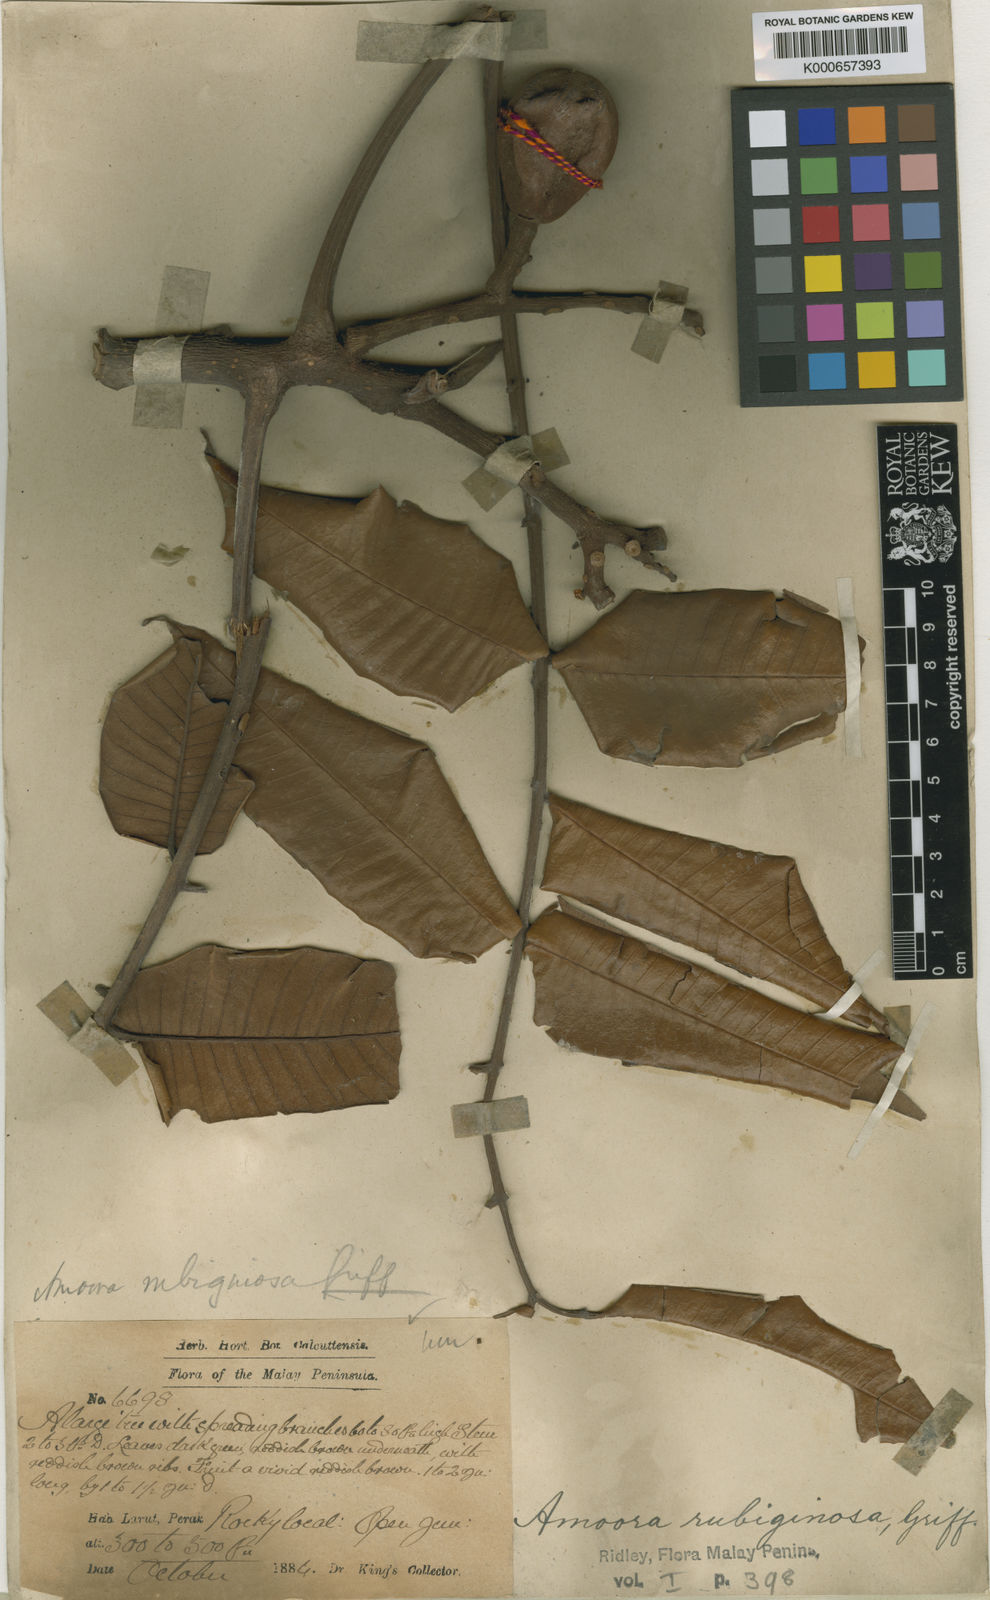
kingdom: Plantae
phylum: Tracheophyta
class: Magnoliopsida
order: Sapindales
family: Meliaceae
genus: Aglaia
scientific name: Aglaia rubiginosa
